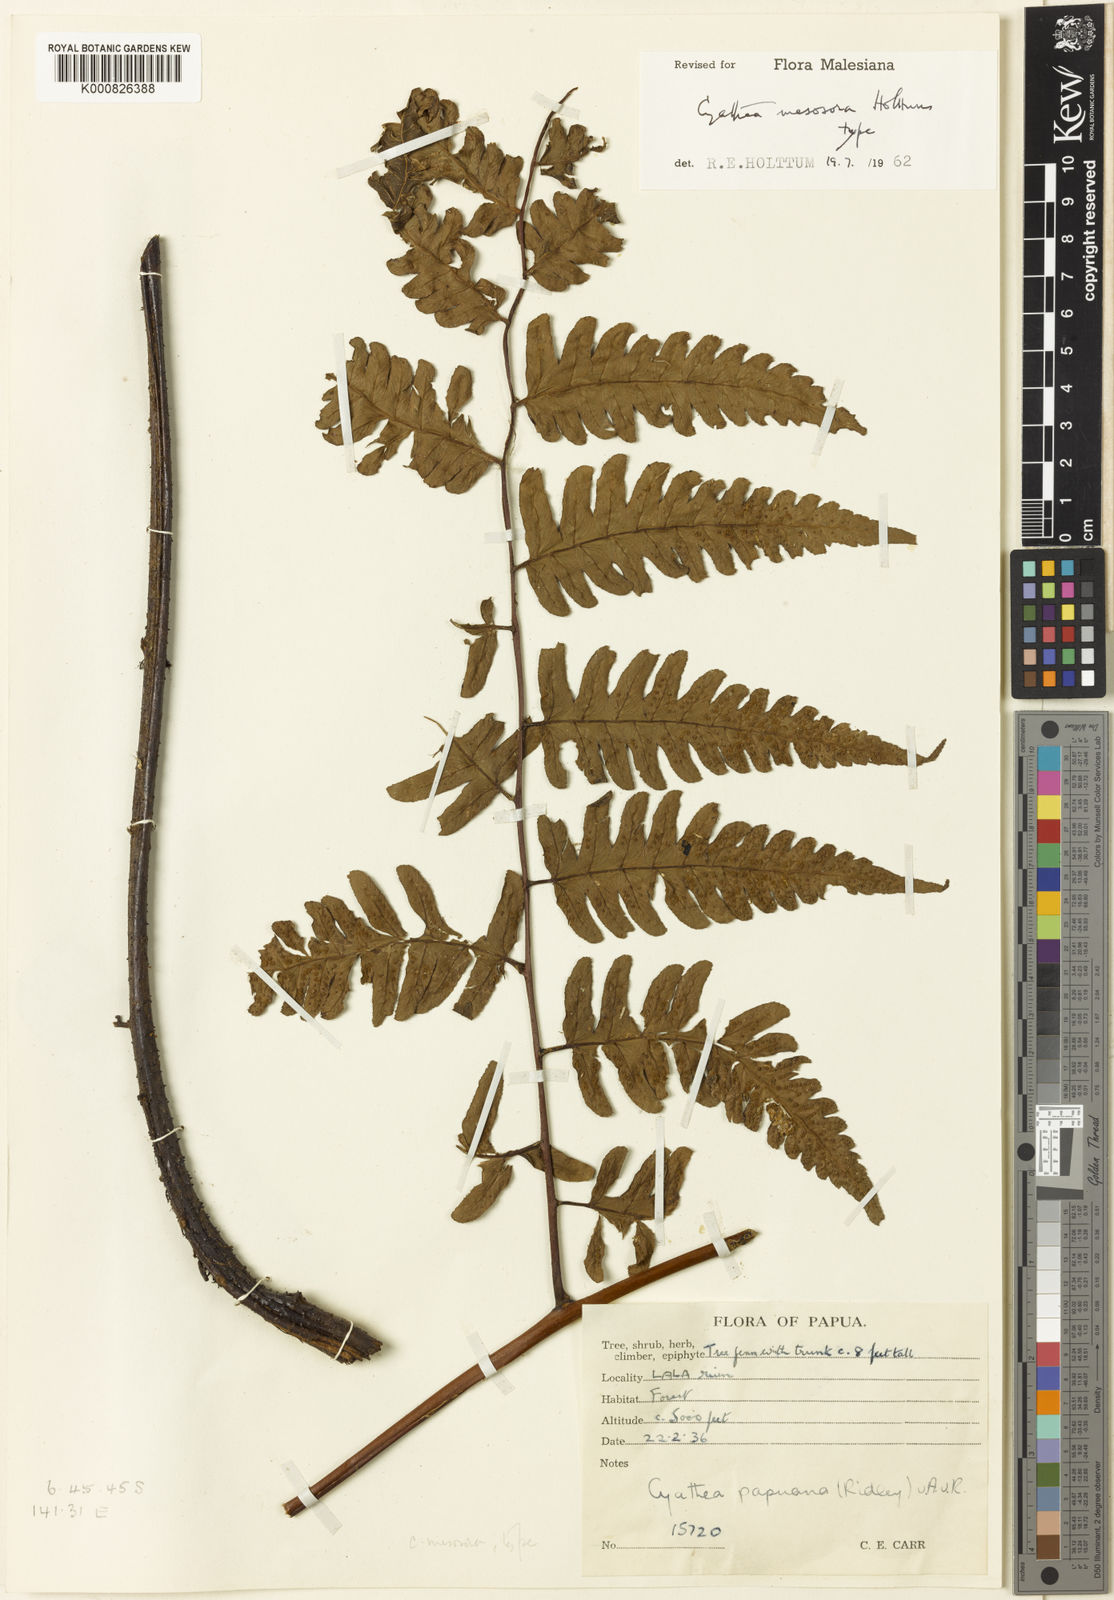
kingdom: Plantae
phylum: Tracheophyta
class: Polypodiopsida
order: Cyatheales
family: Cyatheaceae
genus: Sphaeropteris
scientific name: Sphaeropteris mesosora
